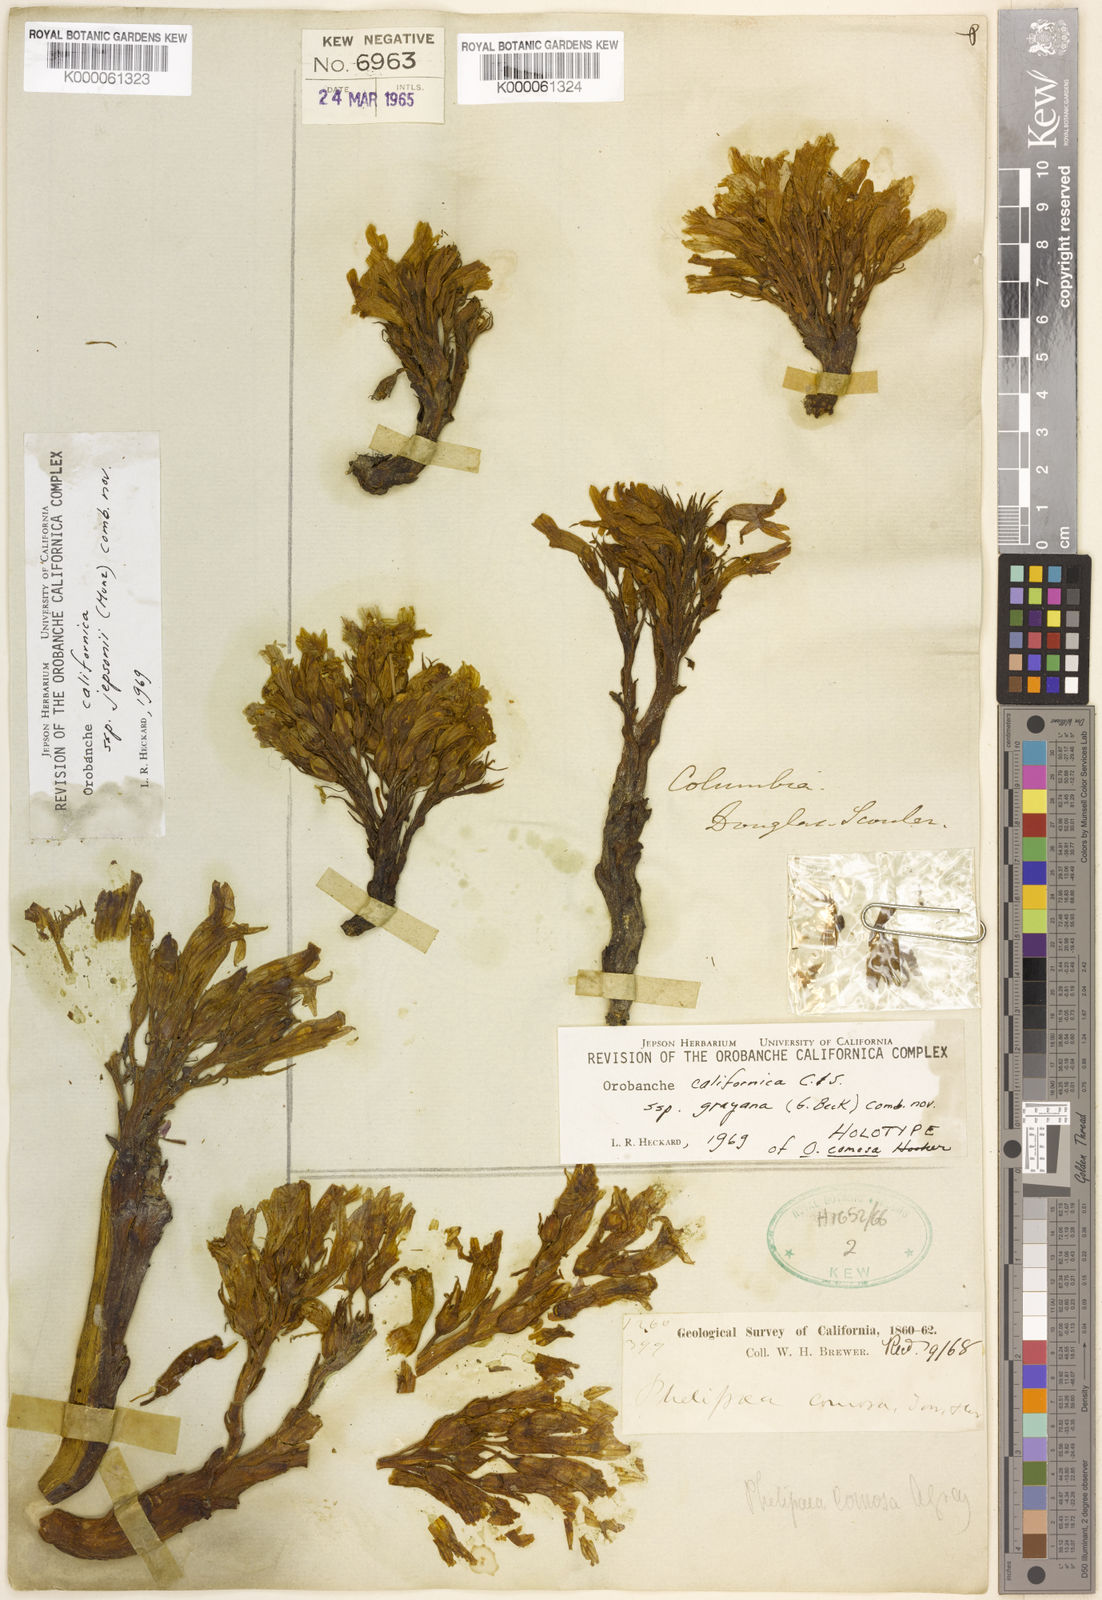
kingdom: Plantae
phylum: Tracheophyta
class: Magnoliopsida
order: Lamiales
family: Orobanchaceae
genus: Aphyllon
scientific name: Aphyllon californicum
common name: California broomrape
